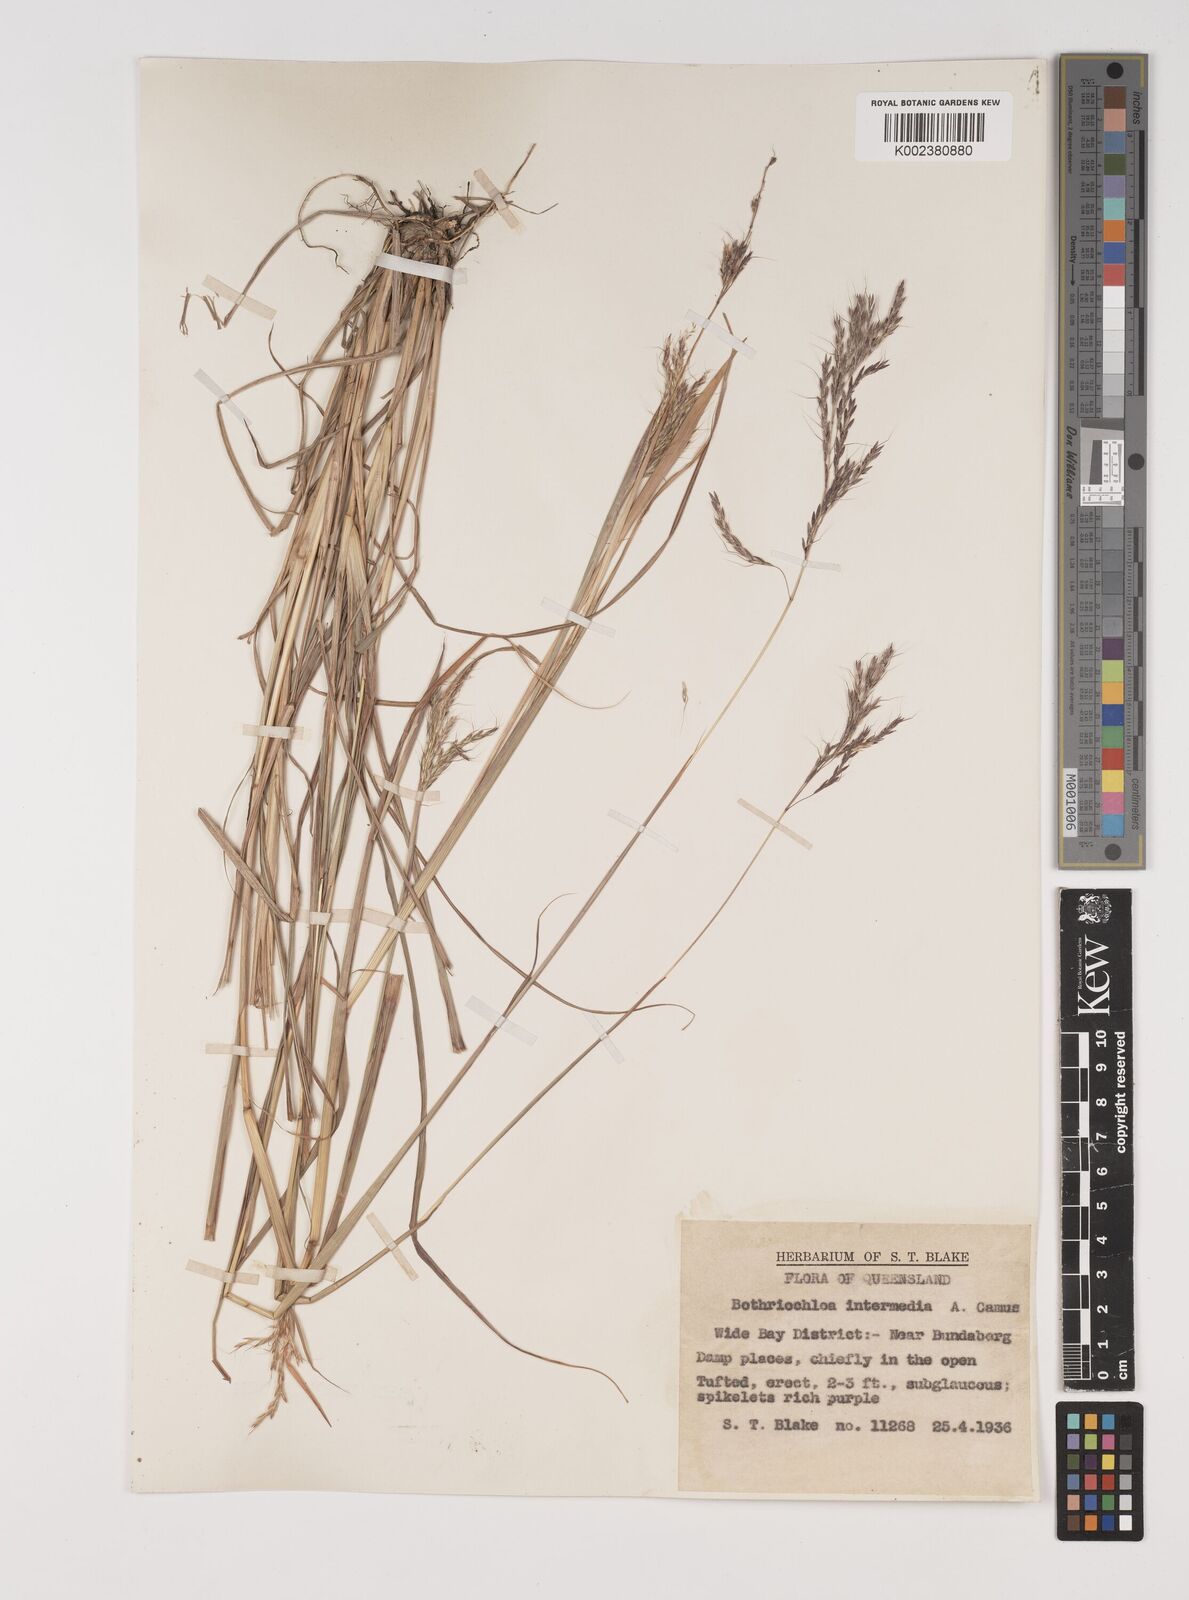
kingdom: Plantae
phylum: Tracheophyta
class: Liliopsida
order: Poales
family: Poaceae
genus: Bothriochloa
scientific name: Bothriochloa bladhii
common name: Caucasian bluestem
